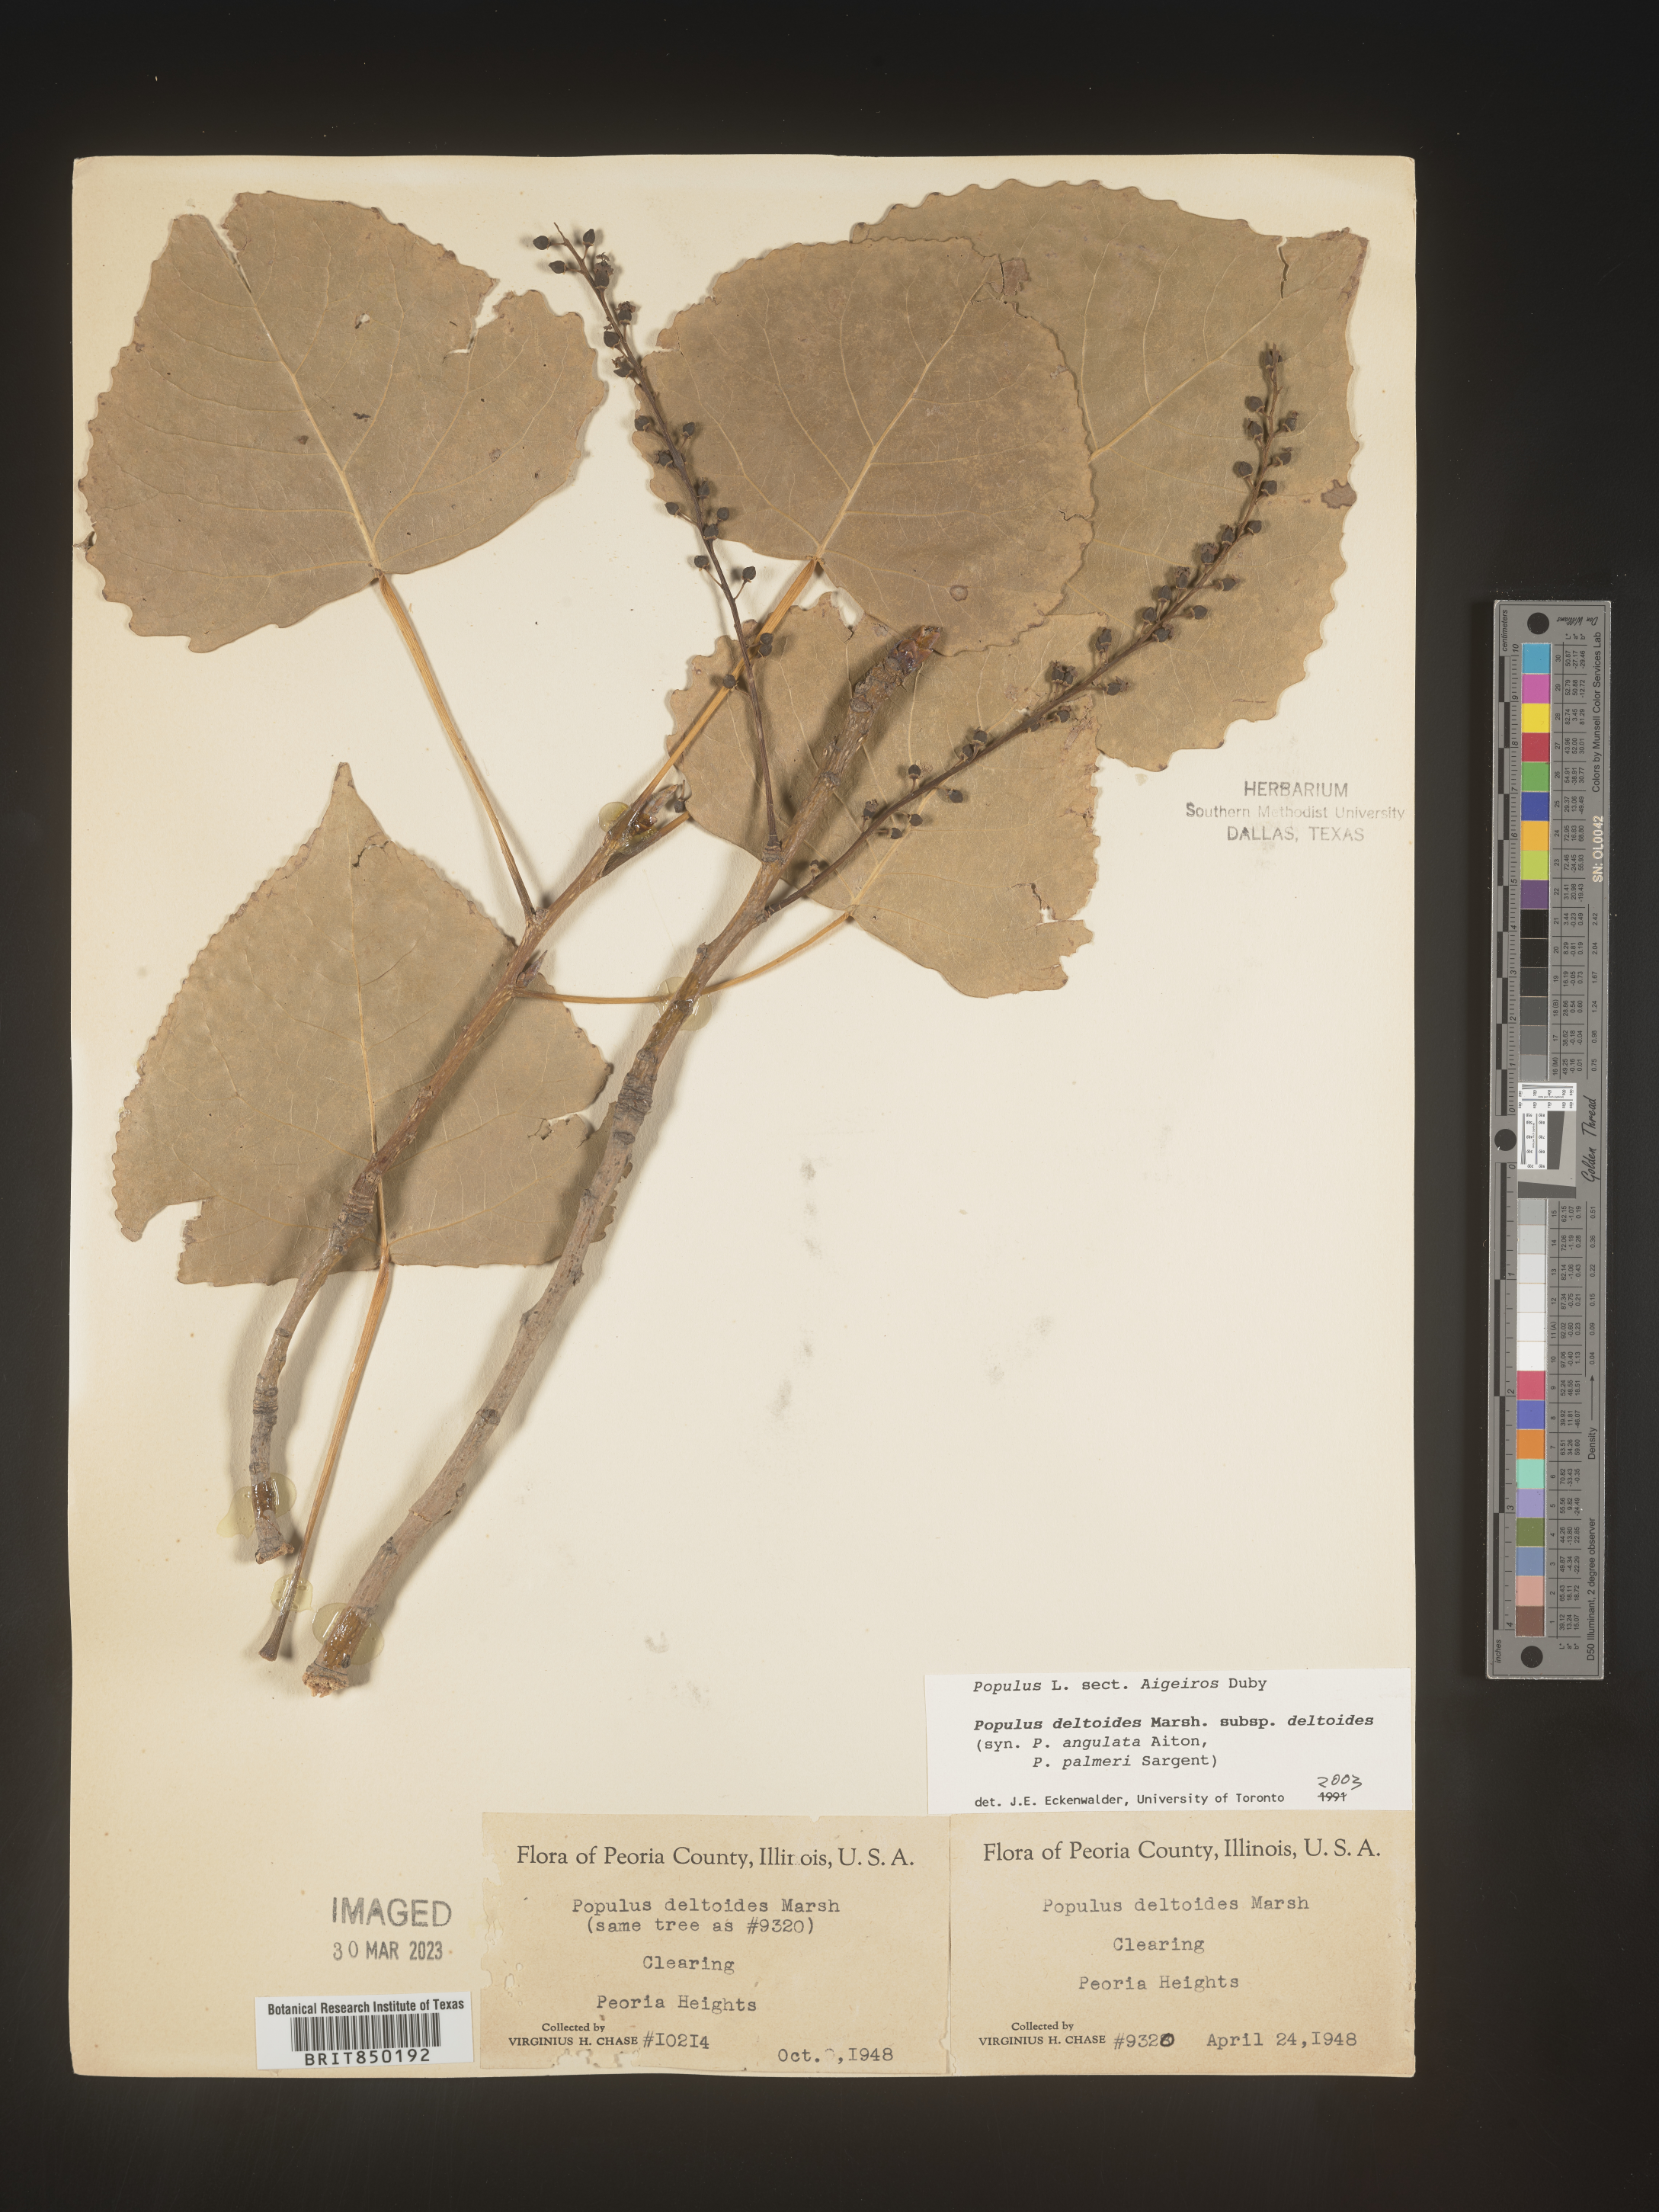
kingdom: Plantae
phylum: Tracheophyta
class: Magnoliopsida
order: Malpighiales
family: Salicaceae
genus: Populus
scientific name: Populus deltoides
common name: Eastern cottonwood
